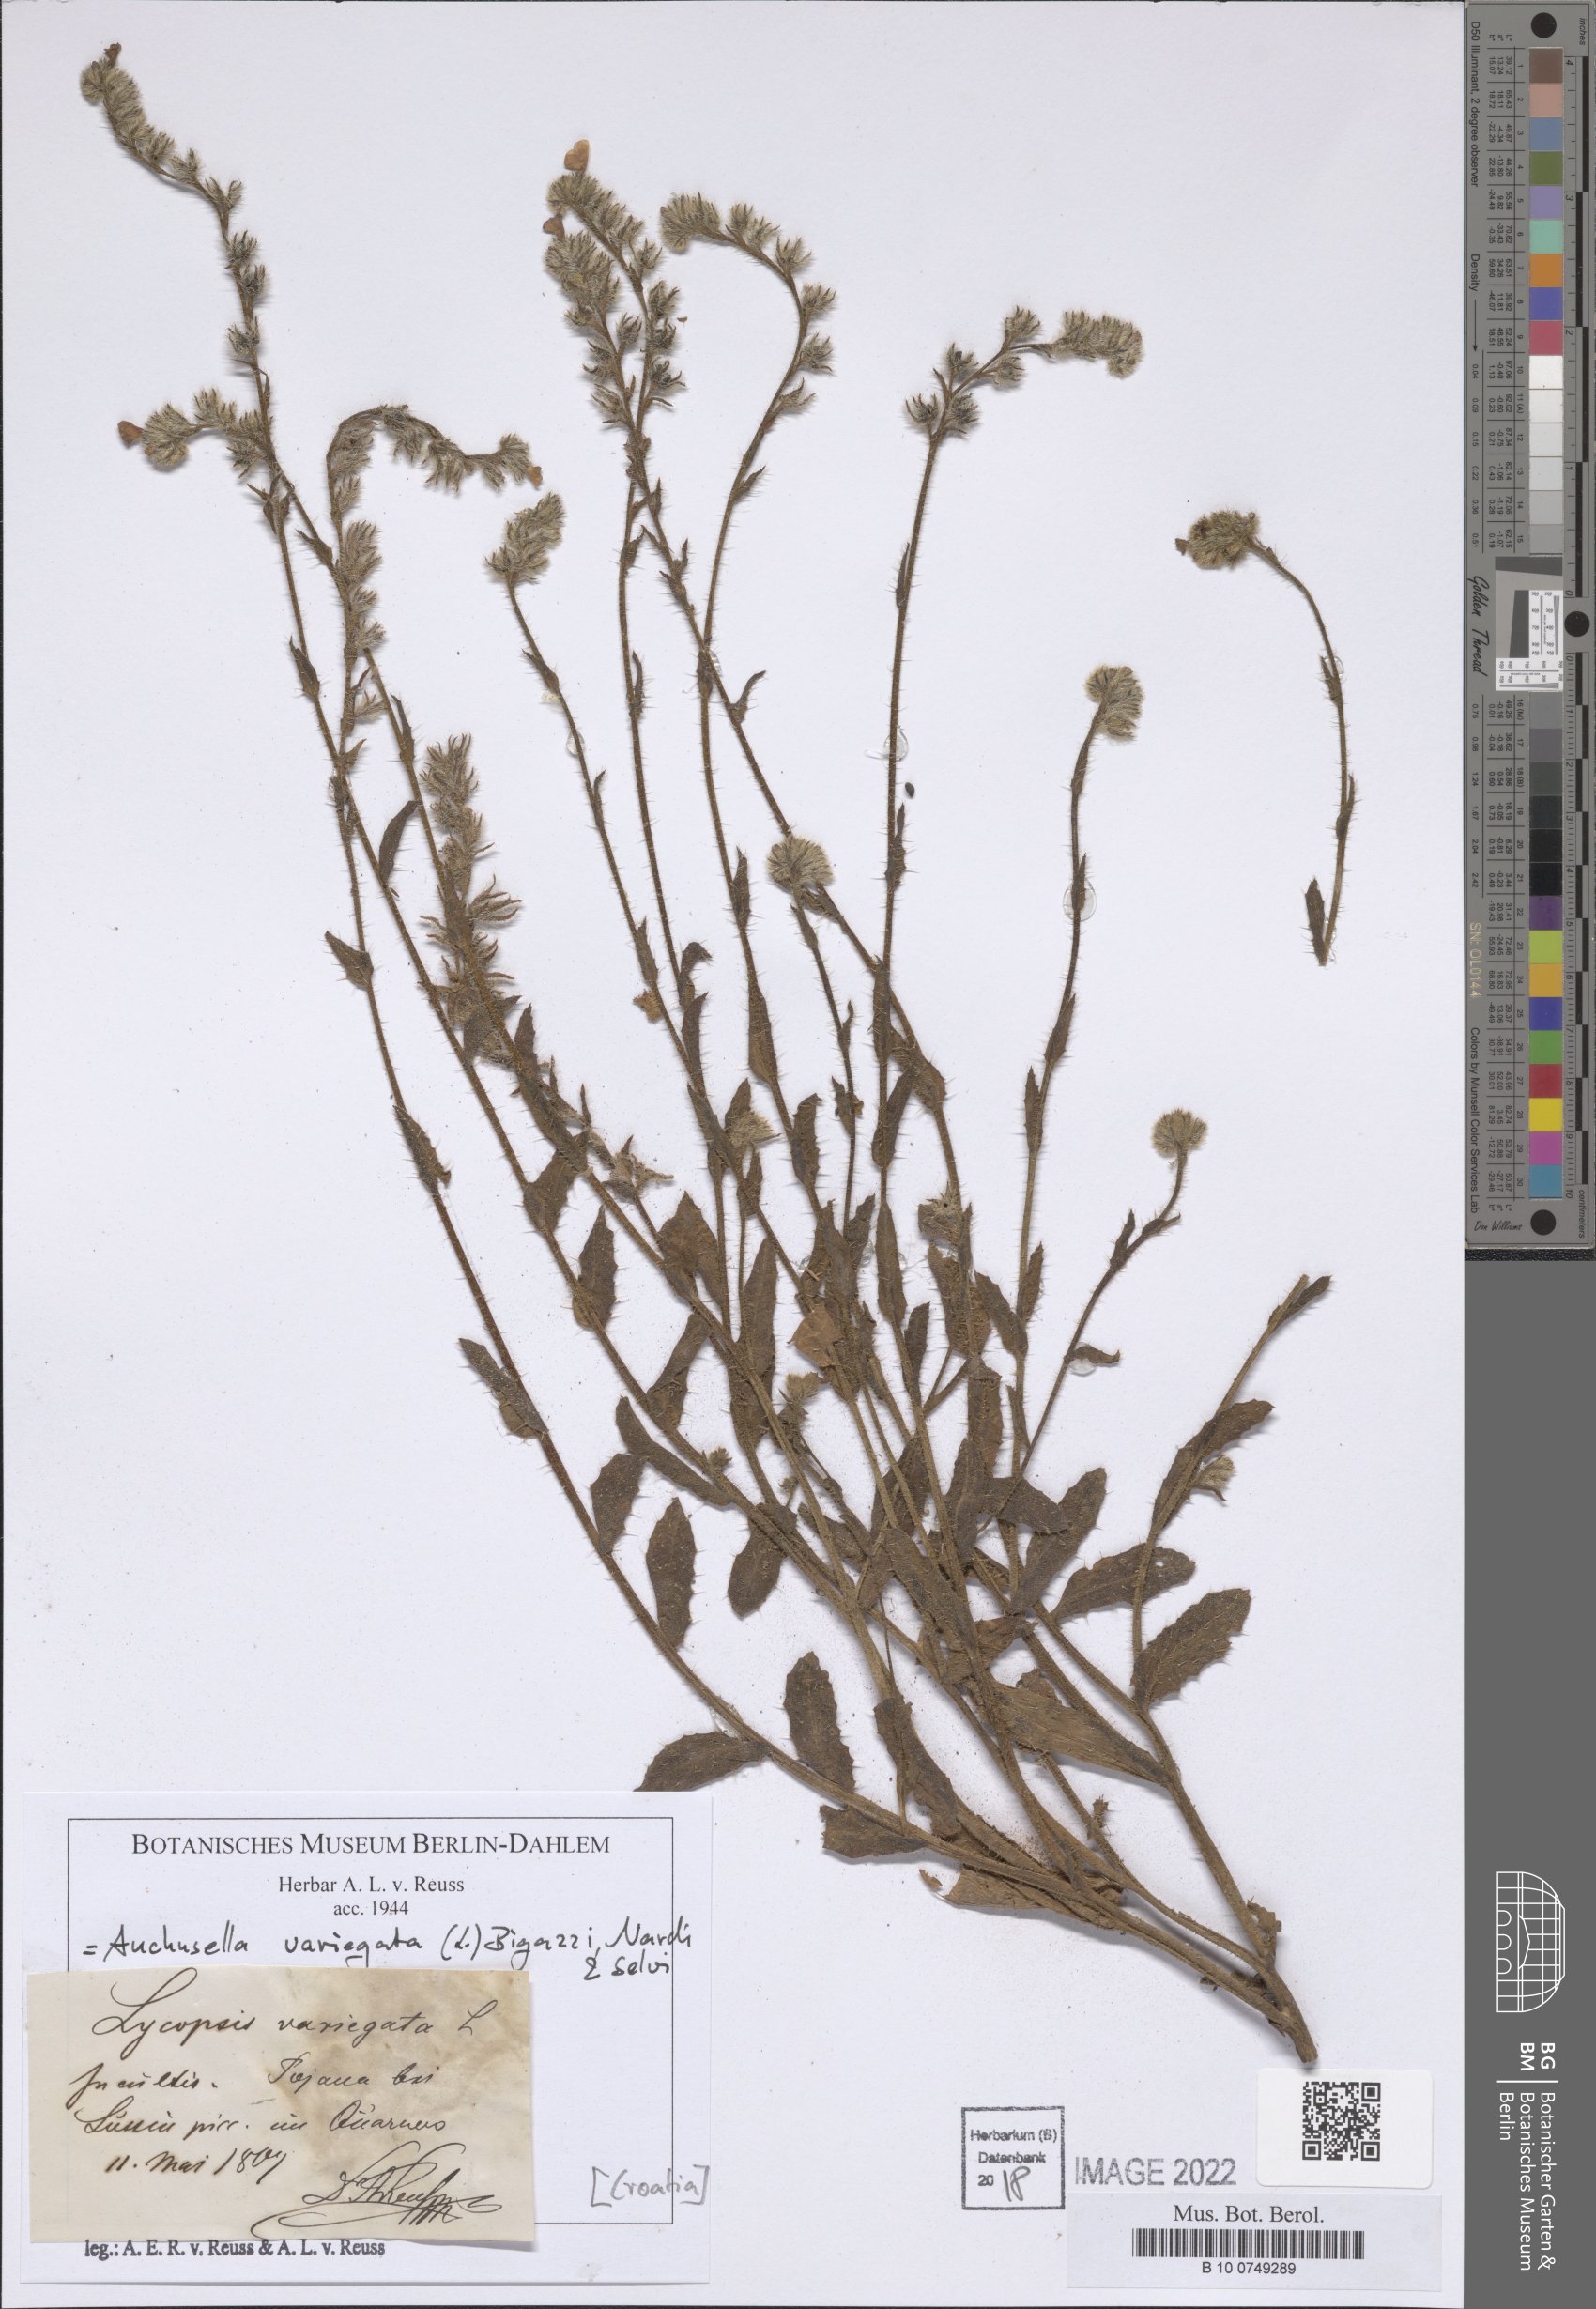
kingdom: Plantae
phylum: Tracheophyta
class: Magnoliopsida
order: Boraginales
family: Boraginaceae
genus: Anchusella
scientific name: Anchusella variegata
